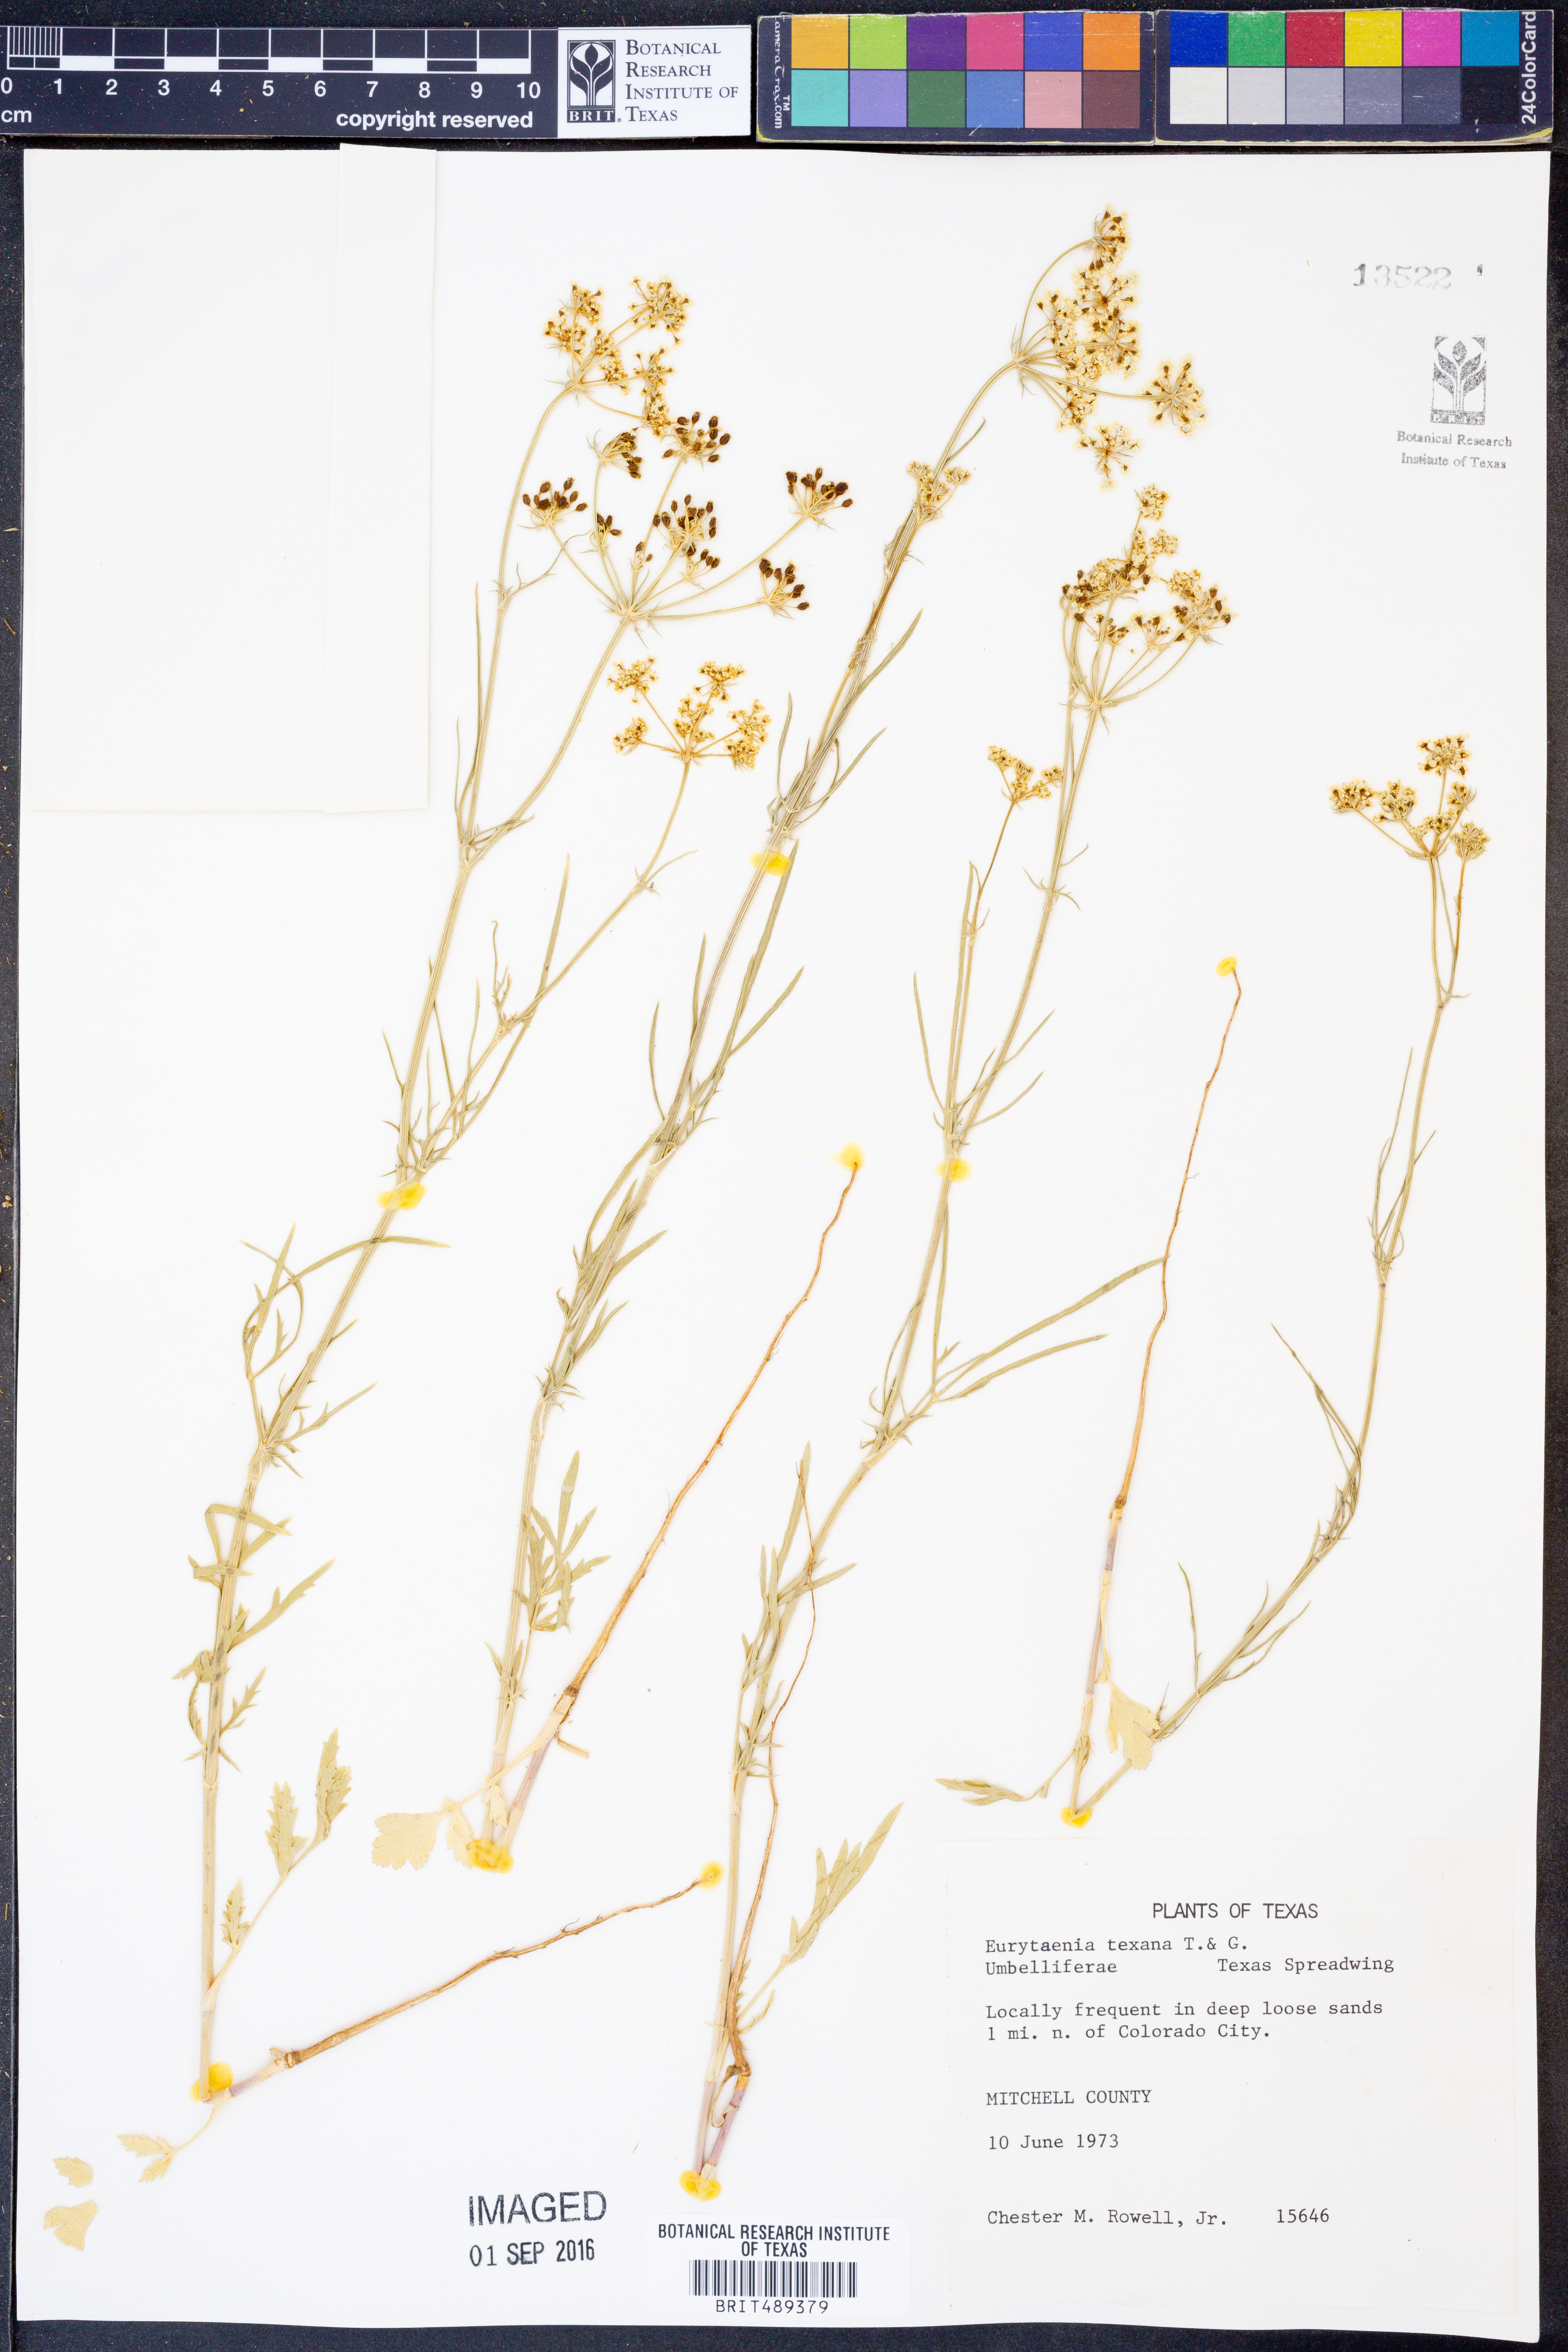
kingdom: Plantae
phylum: Tracheophyta
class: Magnoliopsida
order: Apiales
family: Apiaceae
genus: Eurytaenia
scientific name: Eurytaenia texana
